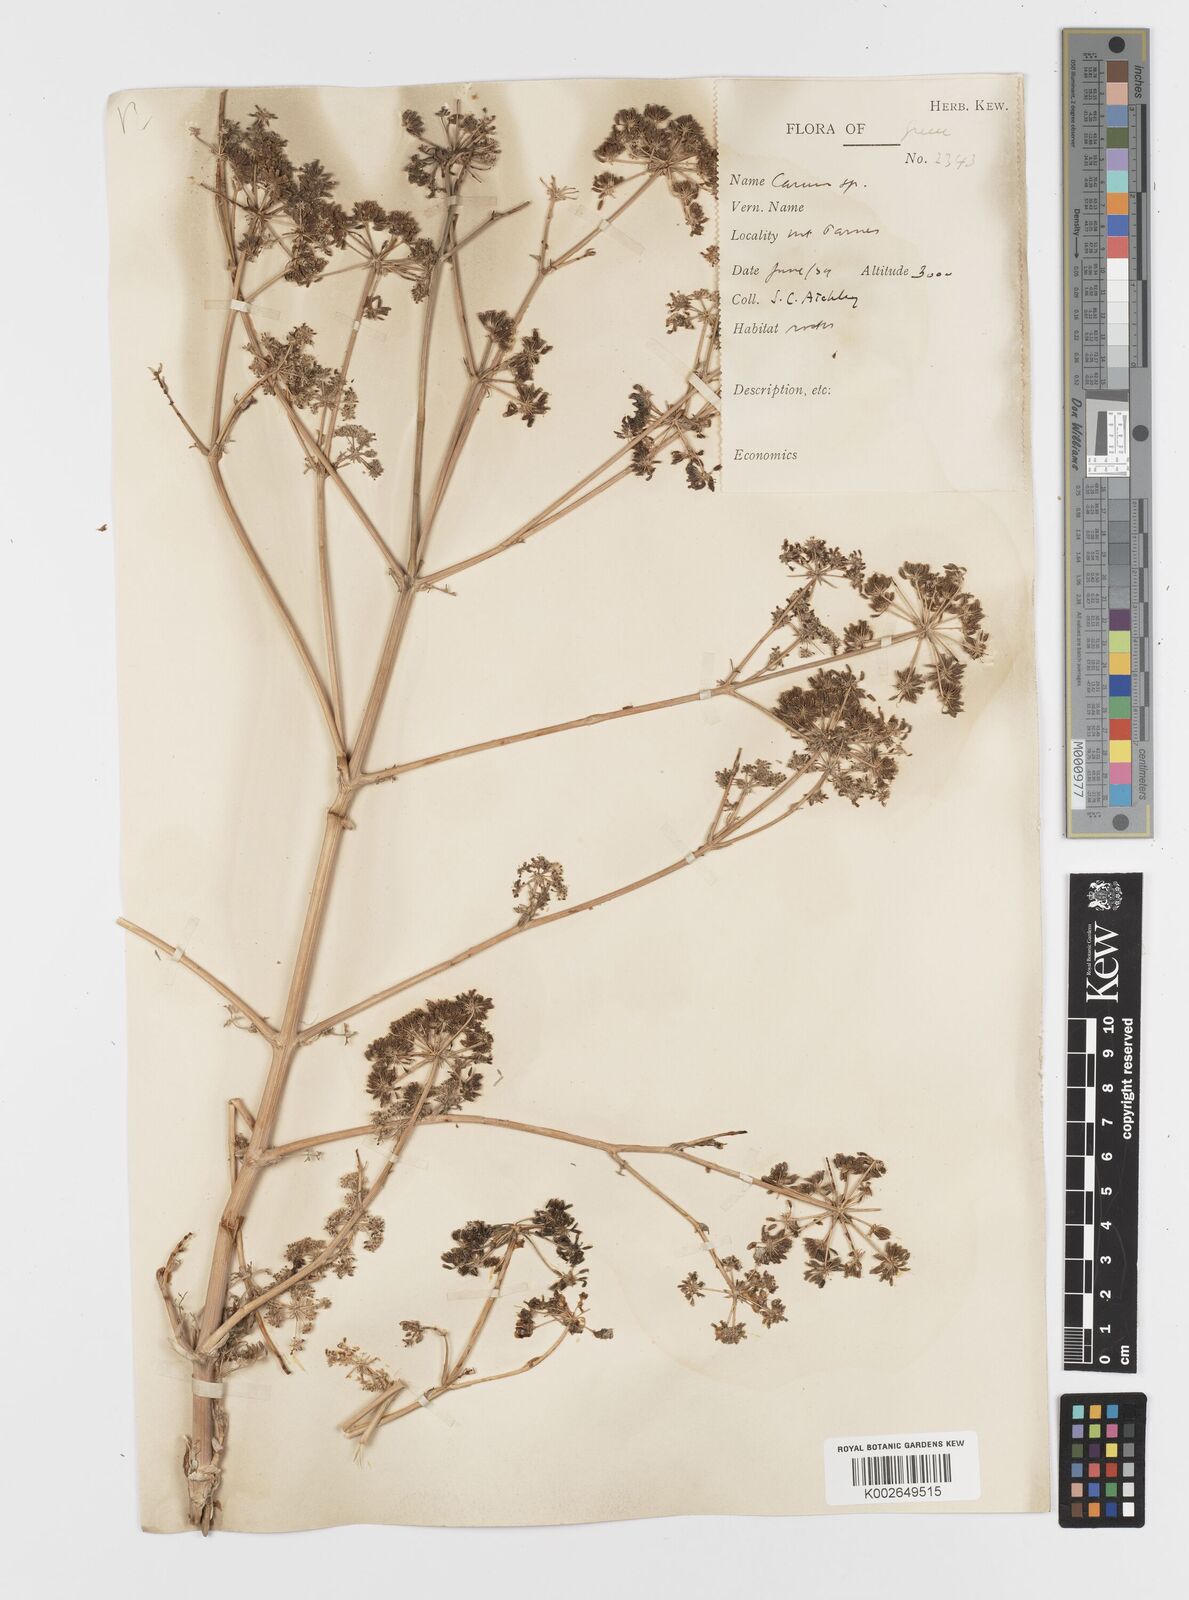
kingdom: Plantae
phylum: Tracheophyta
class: Magnoliopsida
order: Apiales
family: Apiaceae
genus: Hellenocarum
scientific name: Hellenocarum multiflorum
